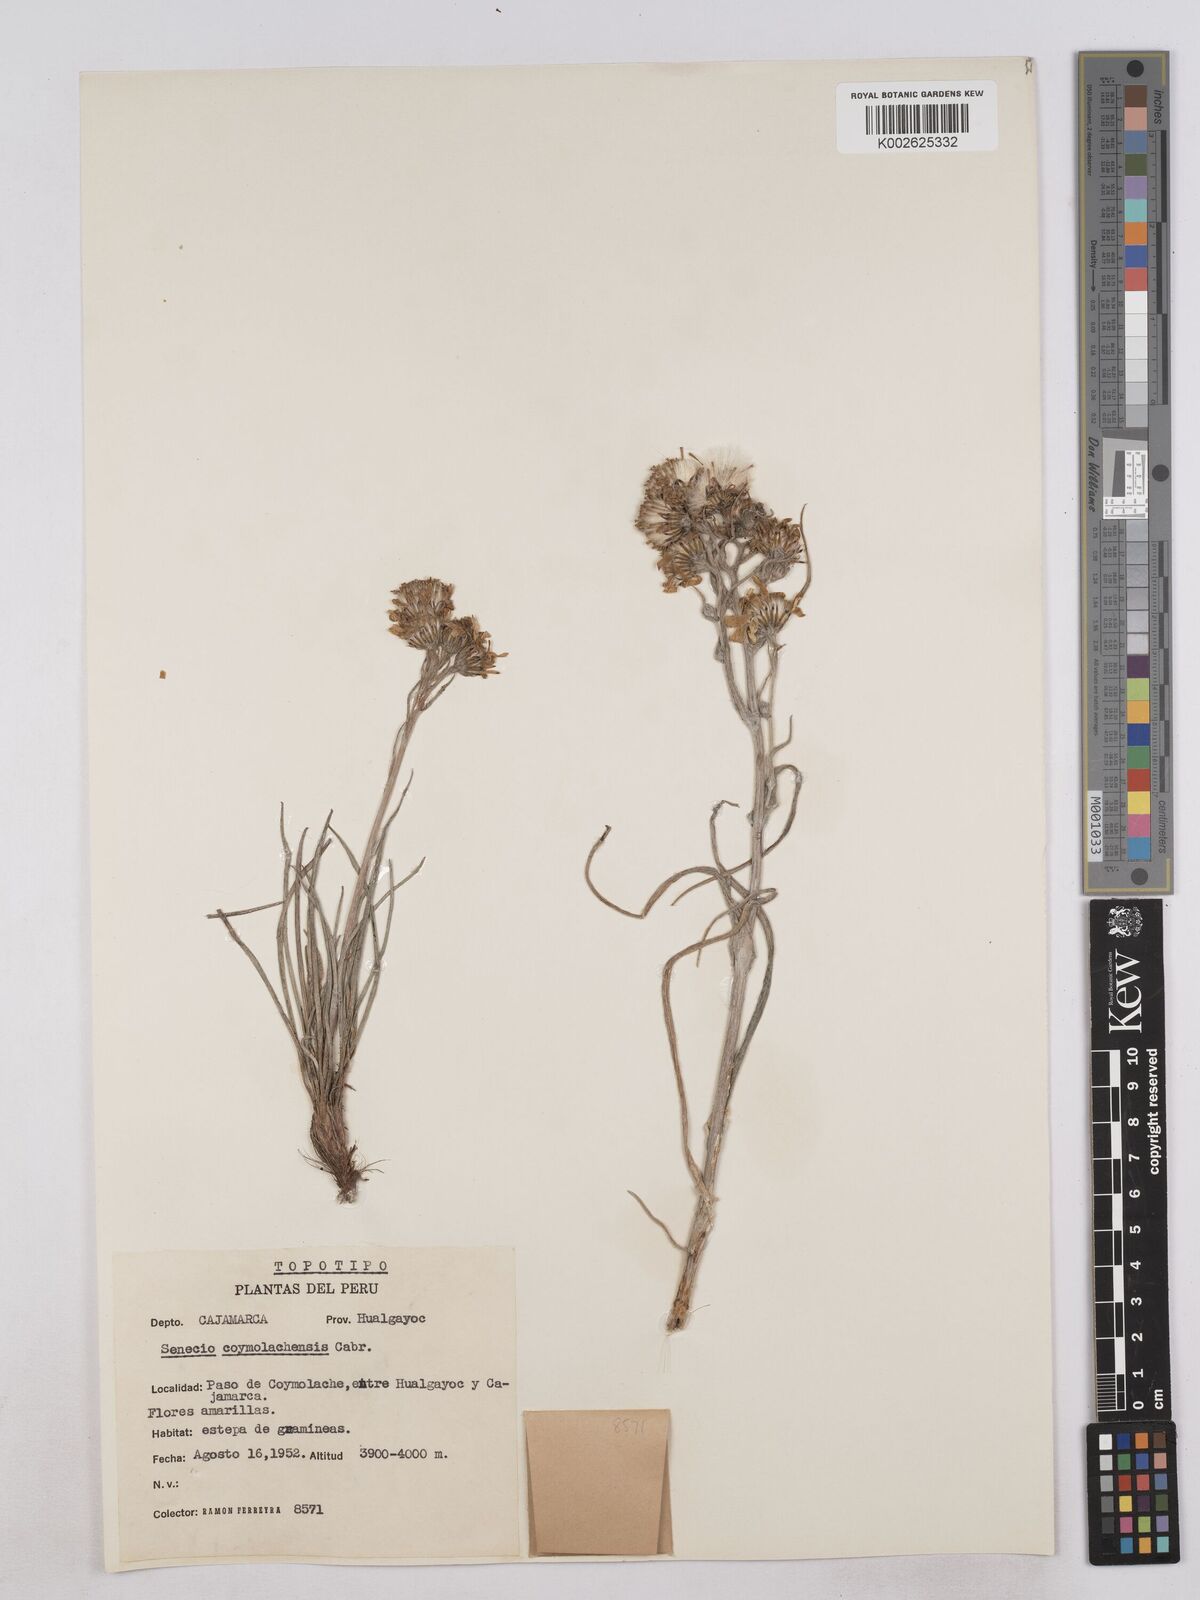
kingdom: Plantae
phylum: Tracheophyta
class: Magnoliopsida
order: Asterales
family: Asteraceae
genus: Senecio
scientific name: Senecio coymolachensis
